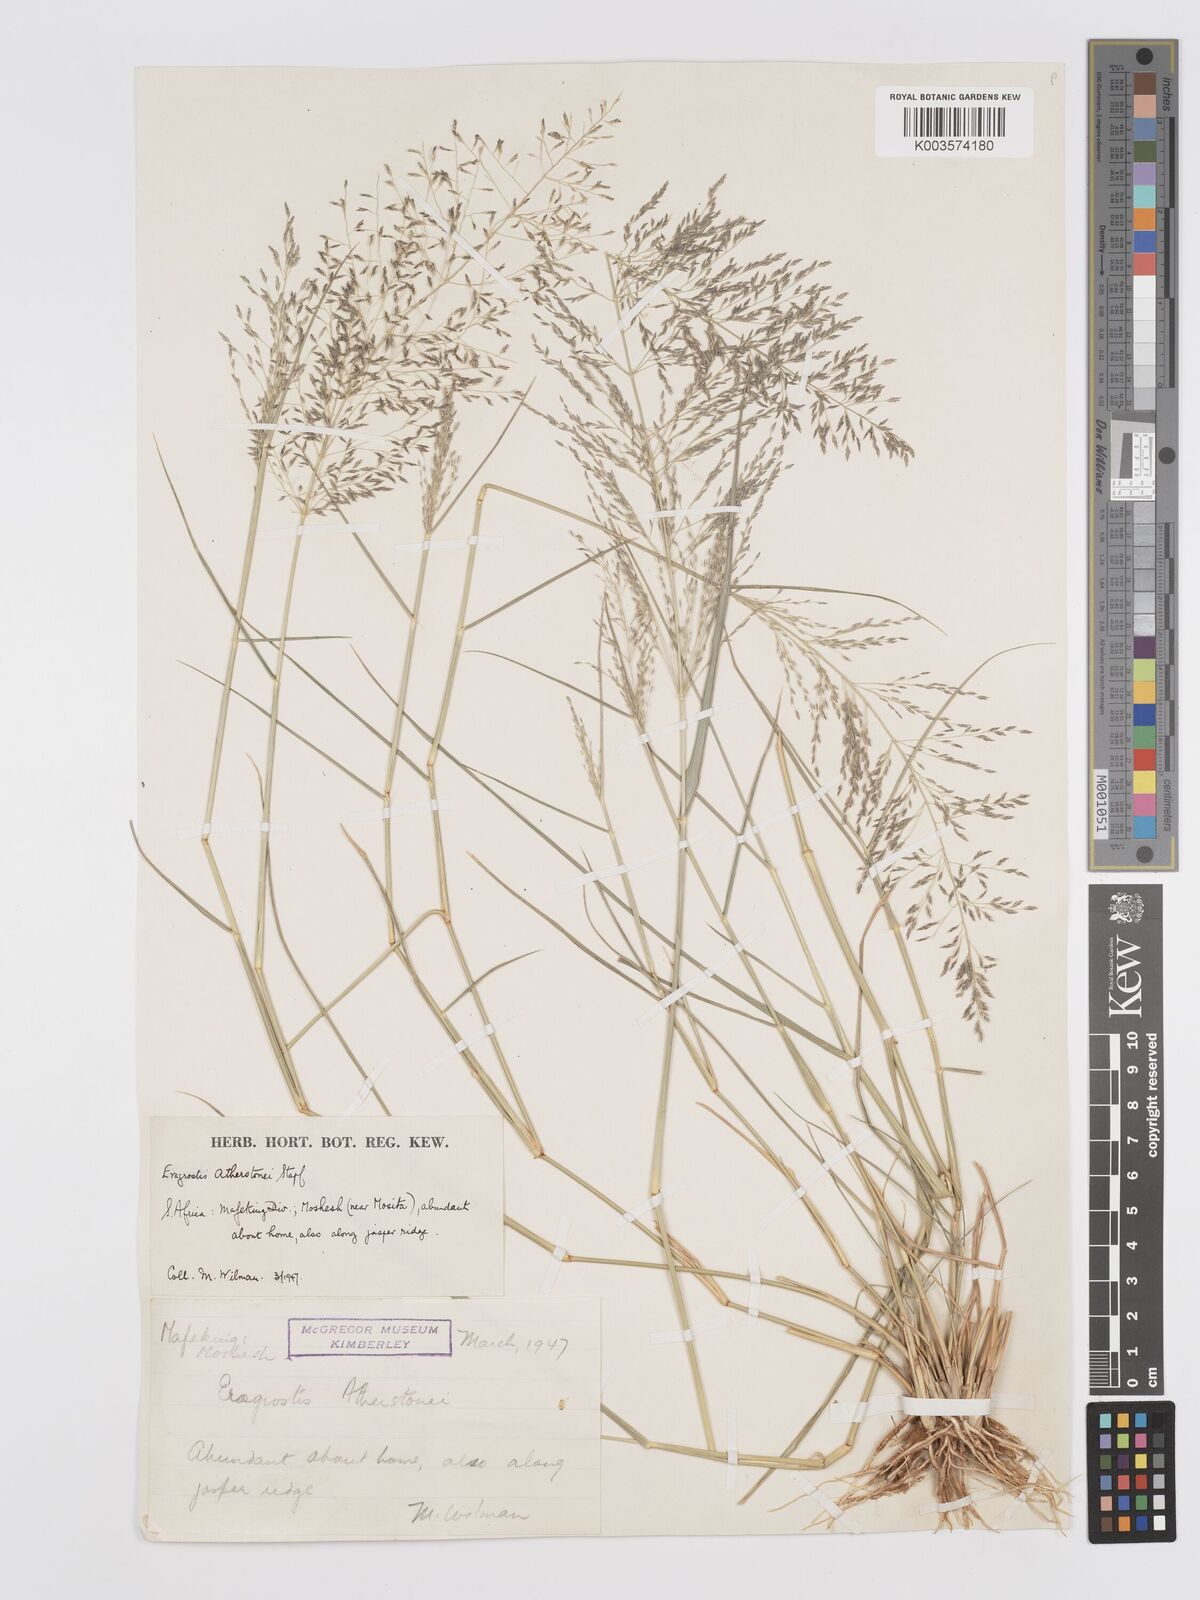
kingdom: Plantae
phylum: Tracheophyta
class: Liliopsida
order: Poales
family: Poaceae
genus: Eragrostis
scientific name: Eragrostis cylindriflora
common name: Cylinderflower lovegrass
